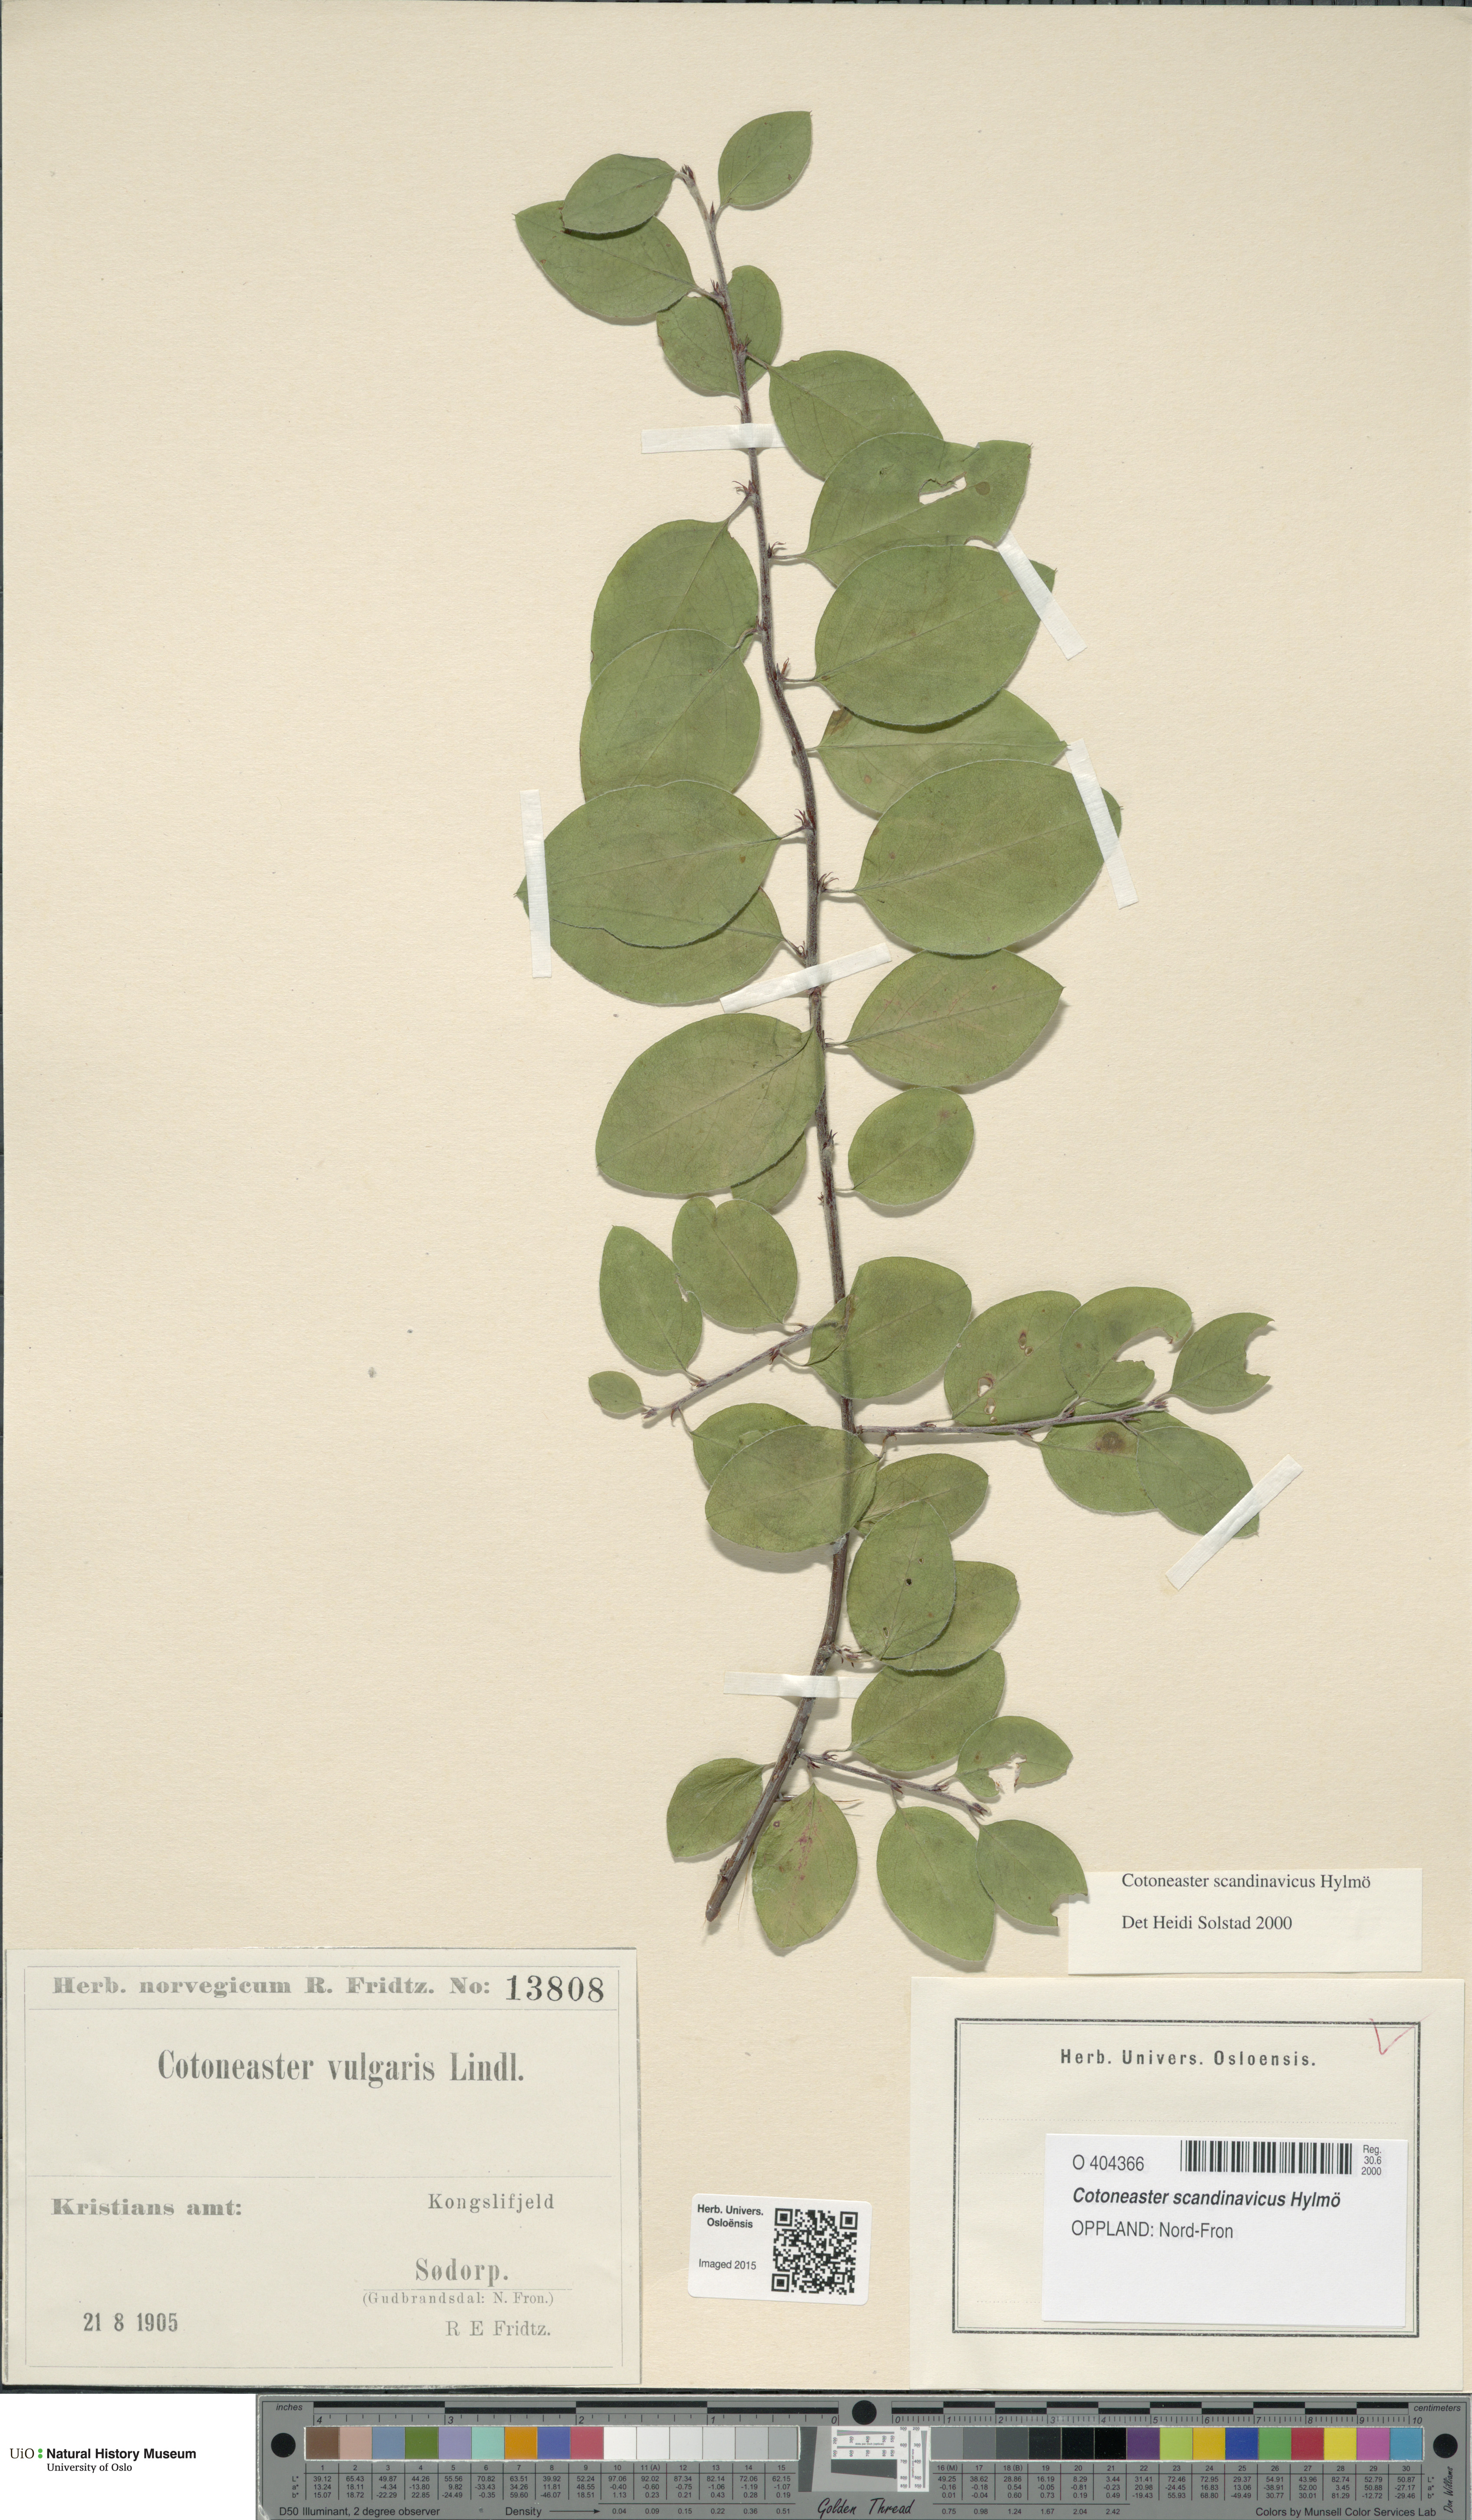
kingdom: Plantae
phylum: Tracheophyta
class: Magnoliopsida
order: Rosales
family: Rosaceae
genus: Cotoneaster
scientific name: Cotoneaster integerrimus
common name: Wild cotoneaster
